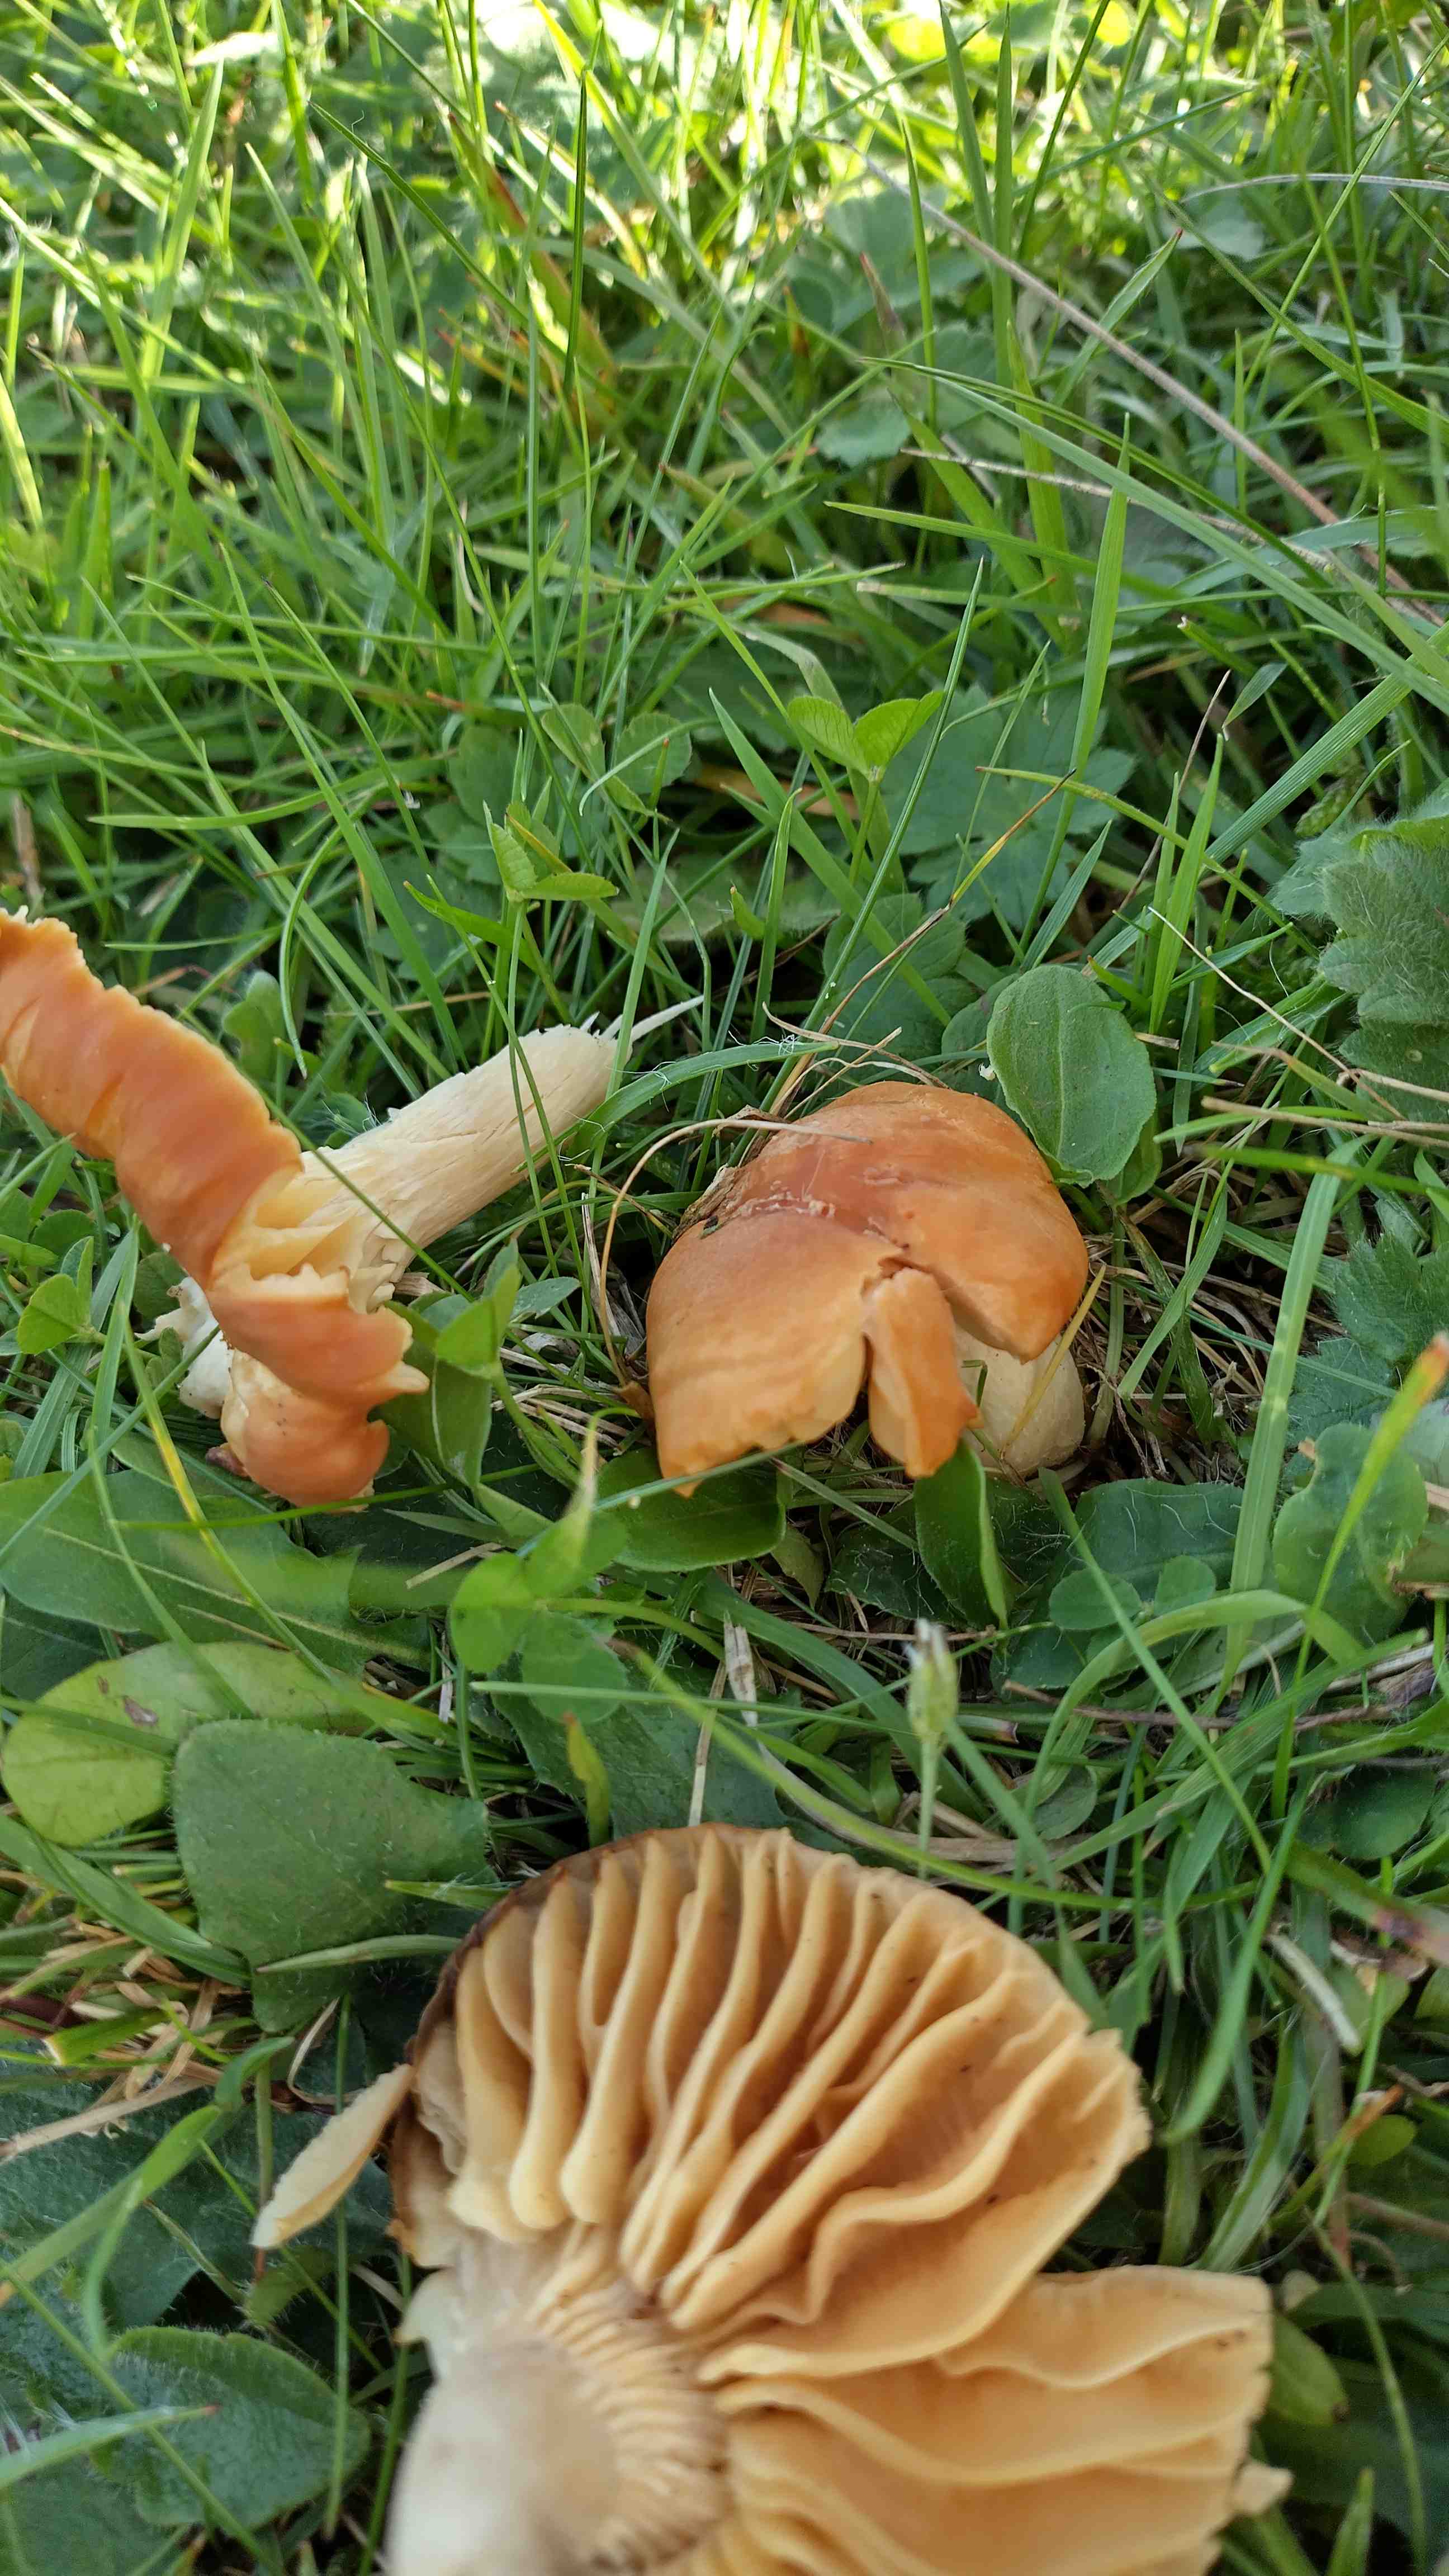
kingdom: Fungi
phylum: Basidiomycota
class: Agaricomycetes
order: Agaricales
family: Hygrophoraceae
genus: Cuphophyllus
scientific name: Cuphophyllus pratensis
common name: eng-vokshat
